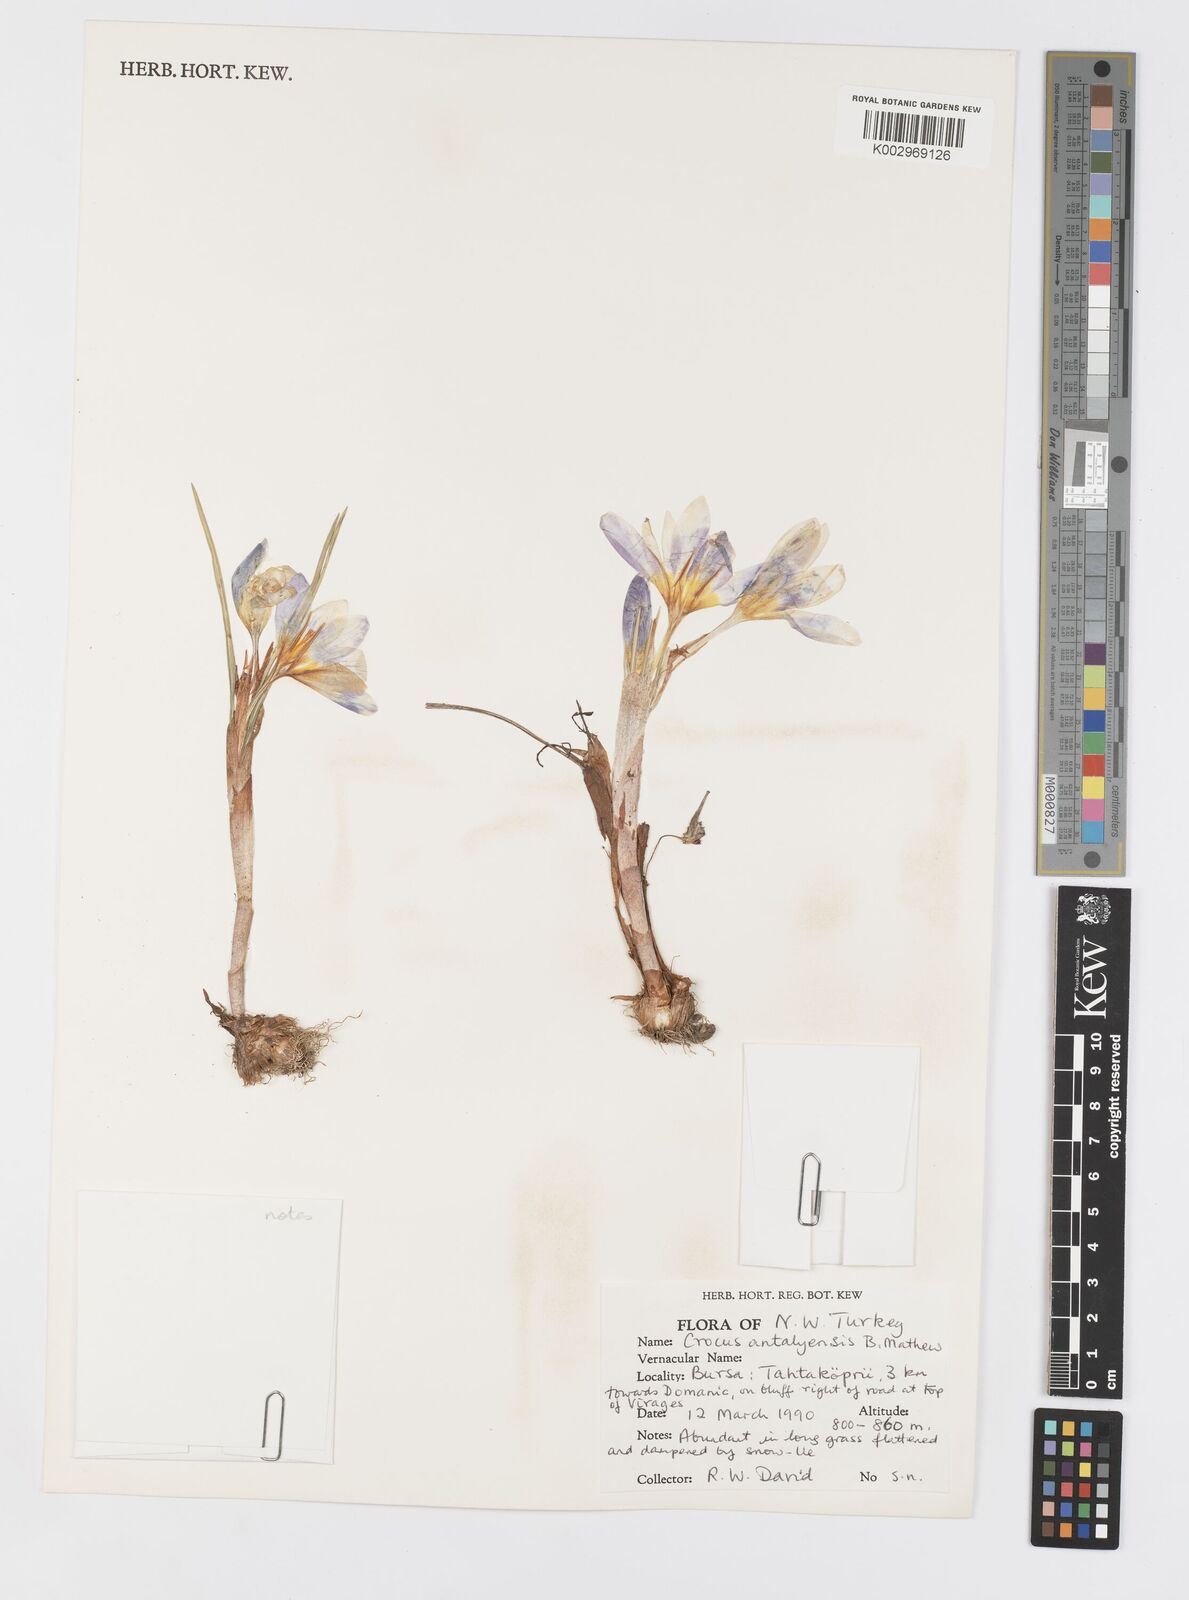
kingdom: Plantae
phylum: Tracheophyta
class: Liliopsida
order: Asparagales
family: Iridaceae
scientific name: Iridaceae
